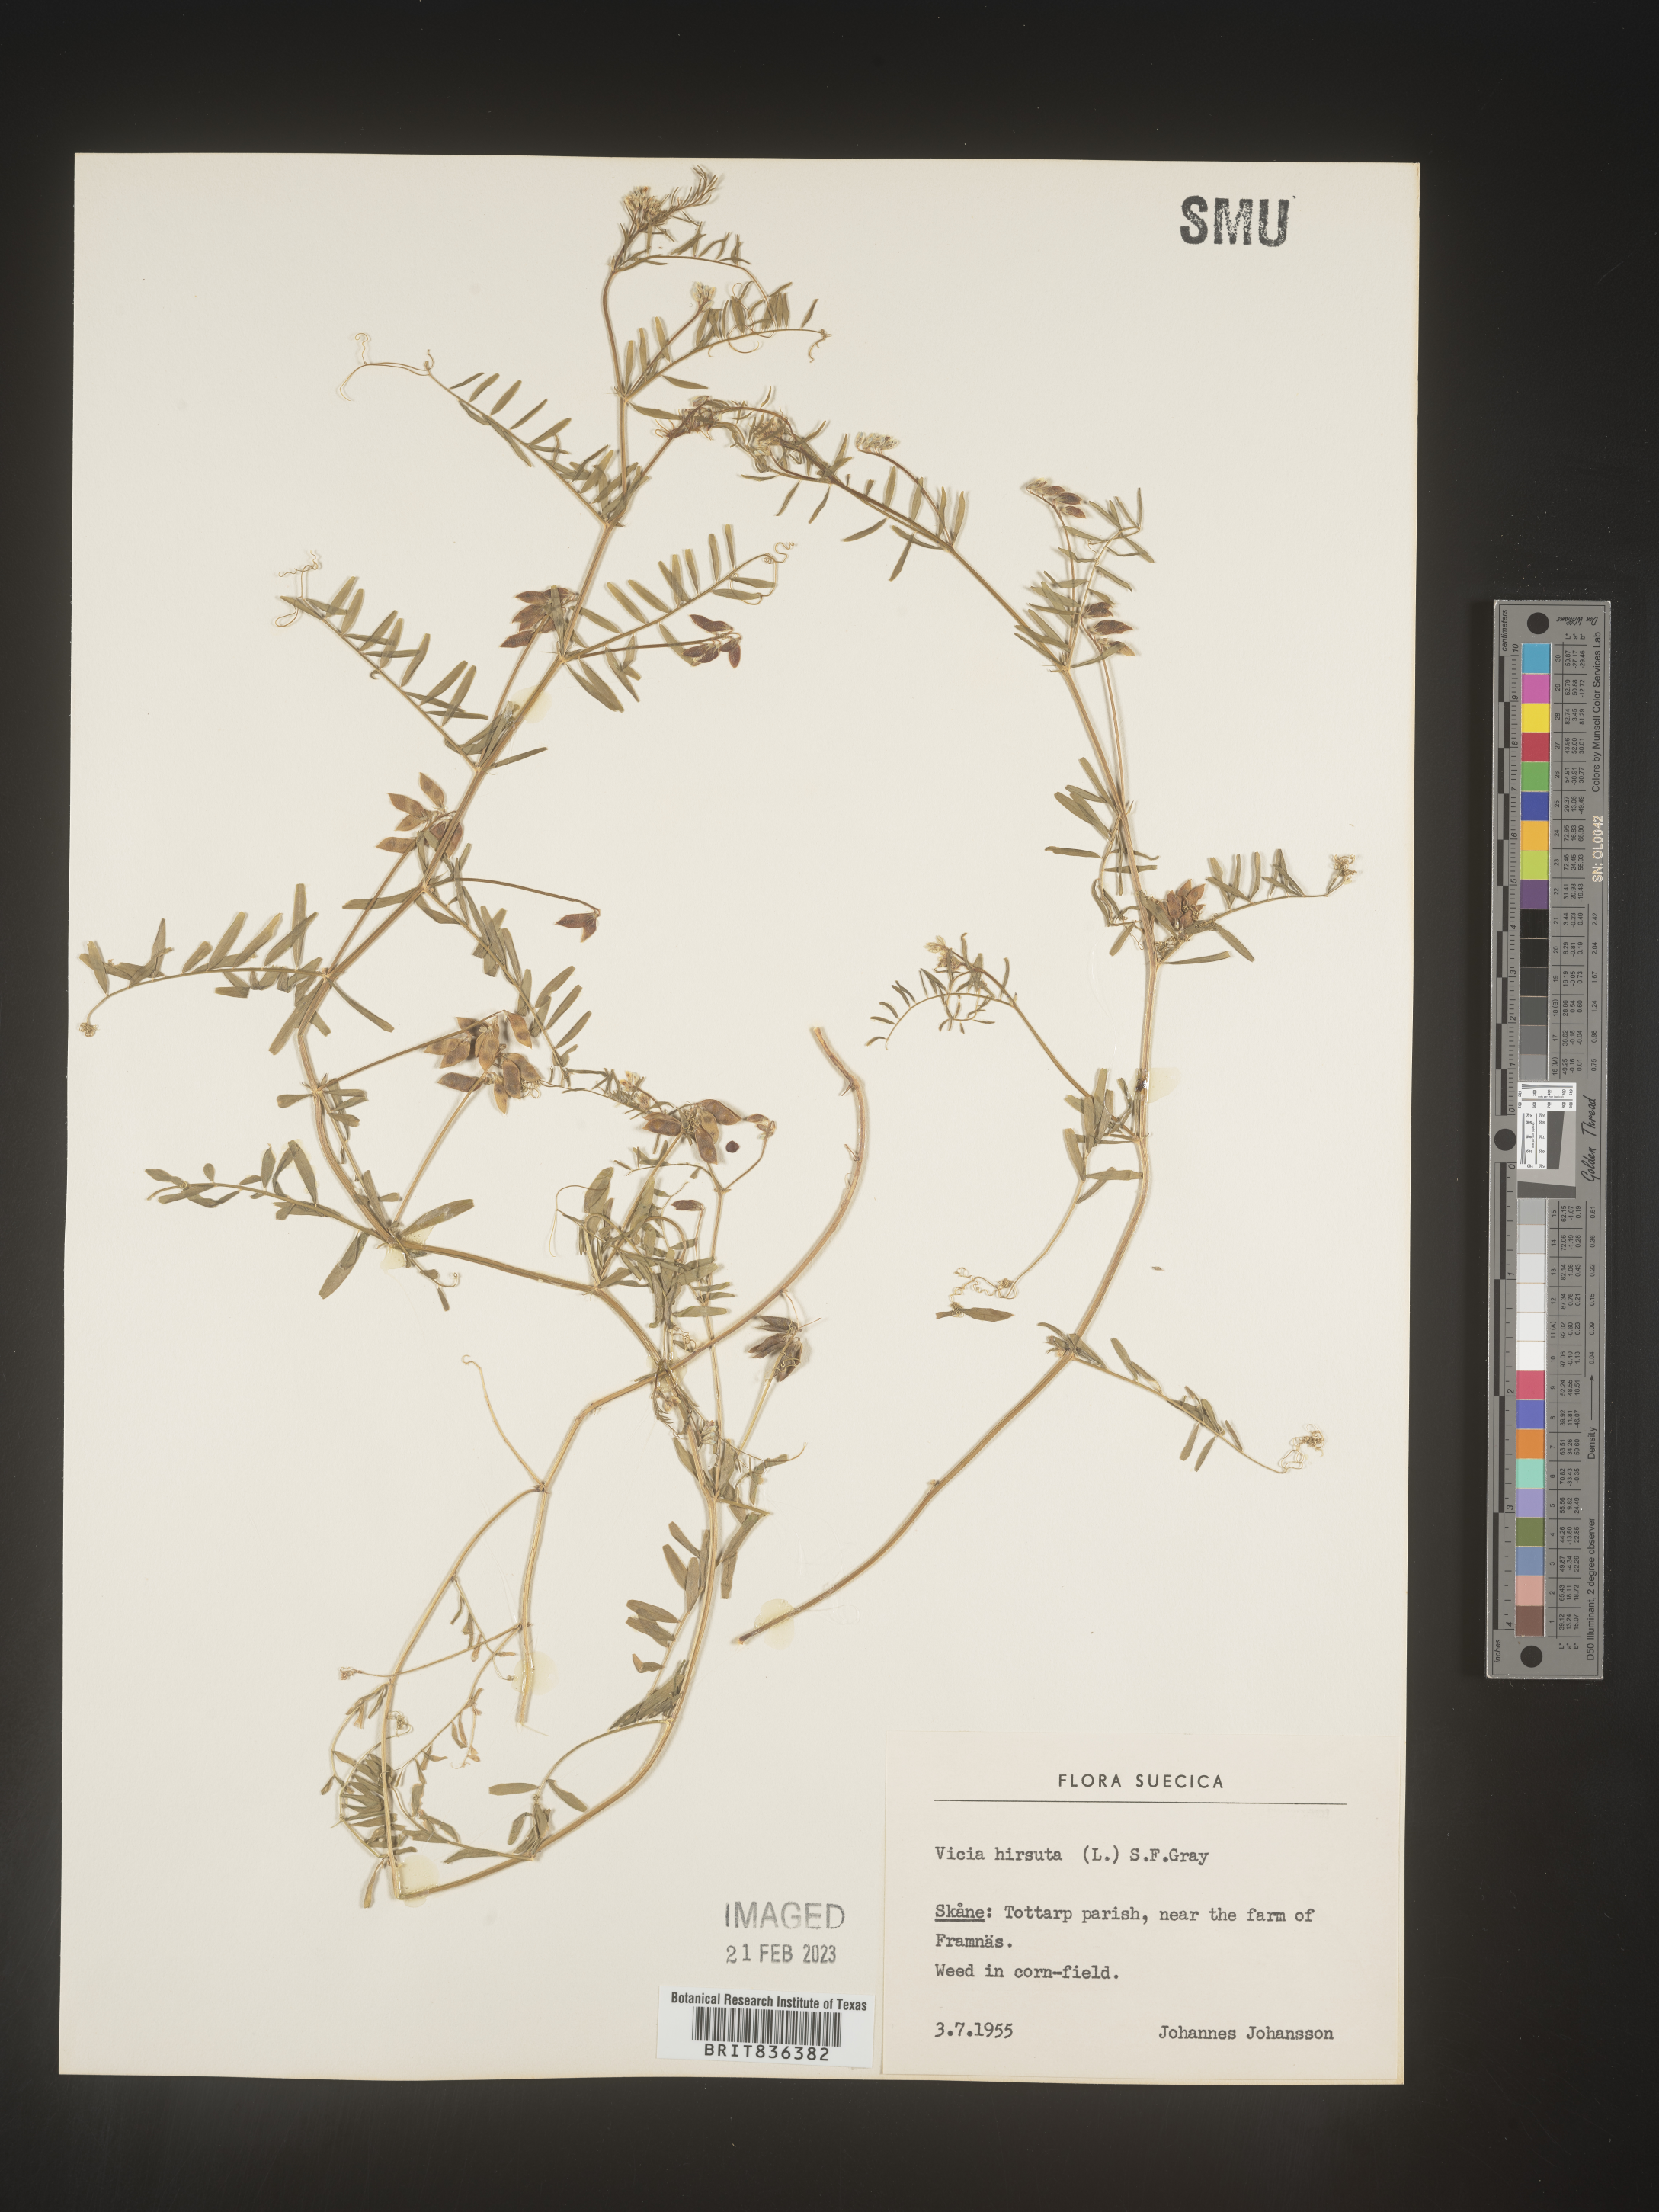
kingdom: Plantae
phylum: Tracheophyta
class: Magnoliopsida
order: Fabales
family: Fabaceae
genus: Vicia
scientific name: Vicia
